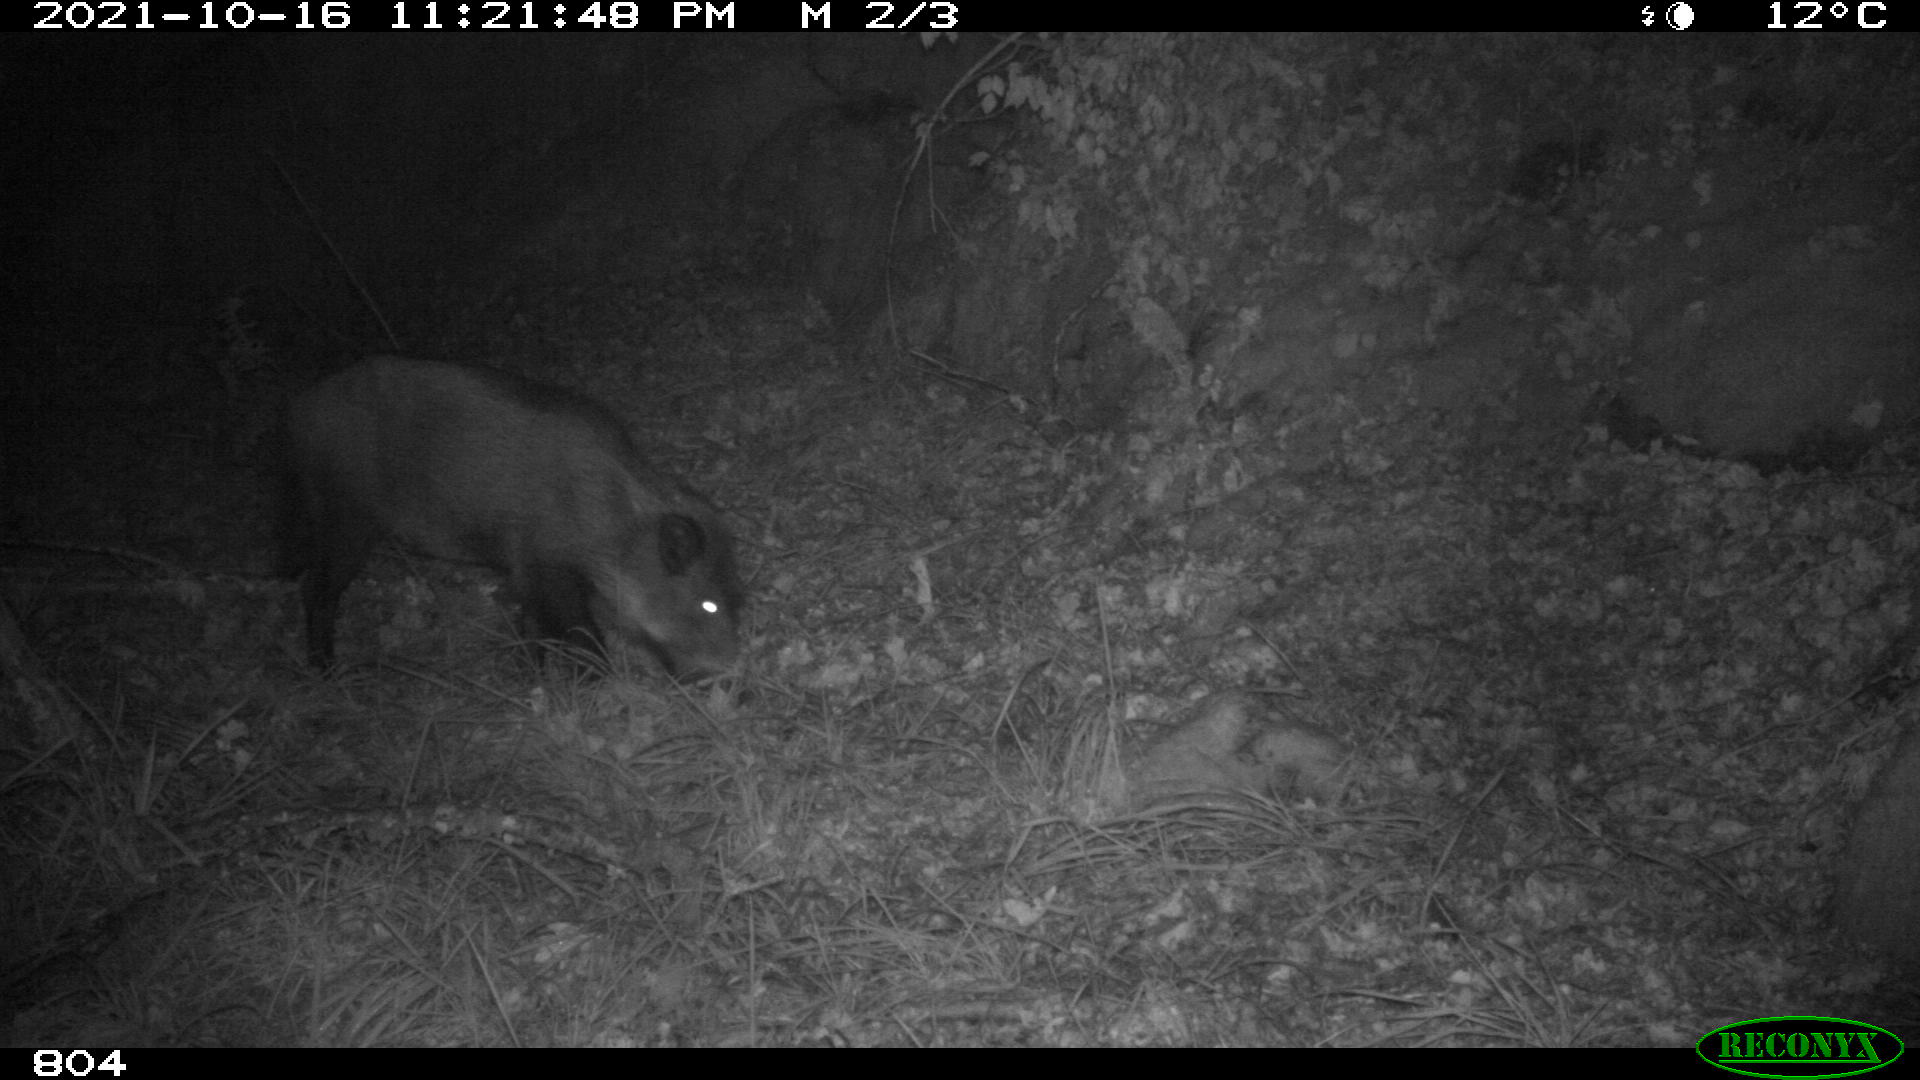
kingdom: Animalia
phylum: Chordata
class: Mammalia
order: Artiodactyla
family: Suidae
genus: Sus
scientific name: Sus scrofa
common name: Wild boar
